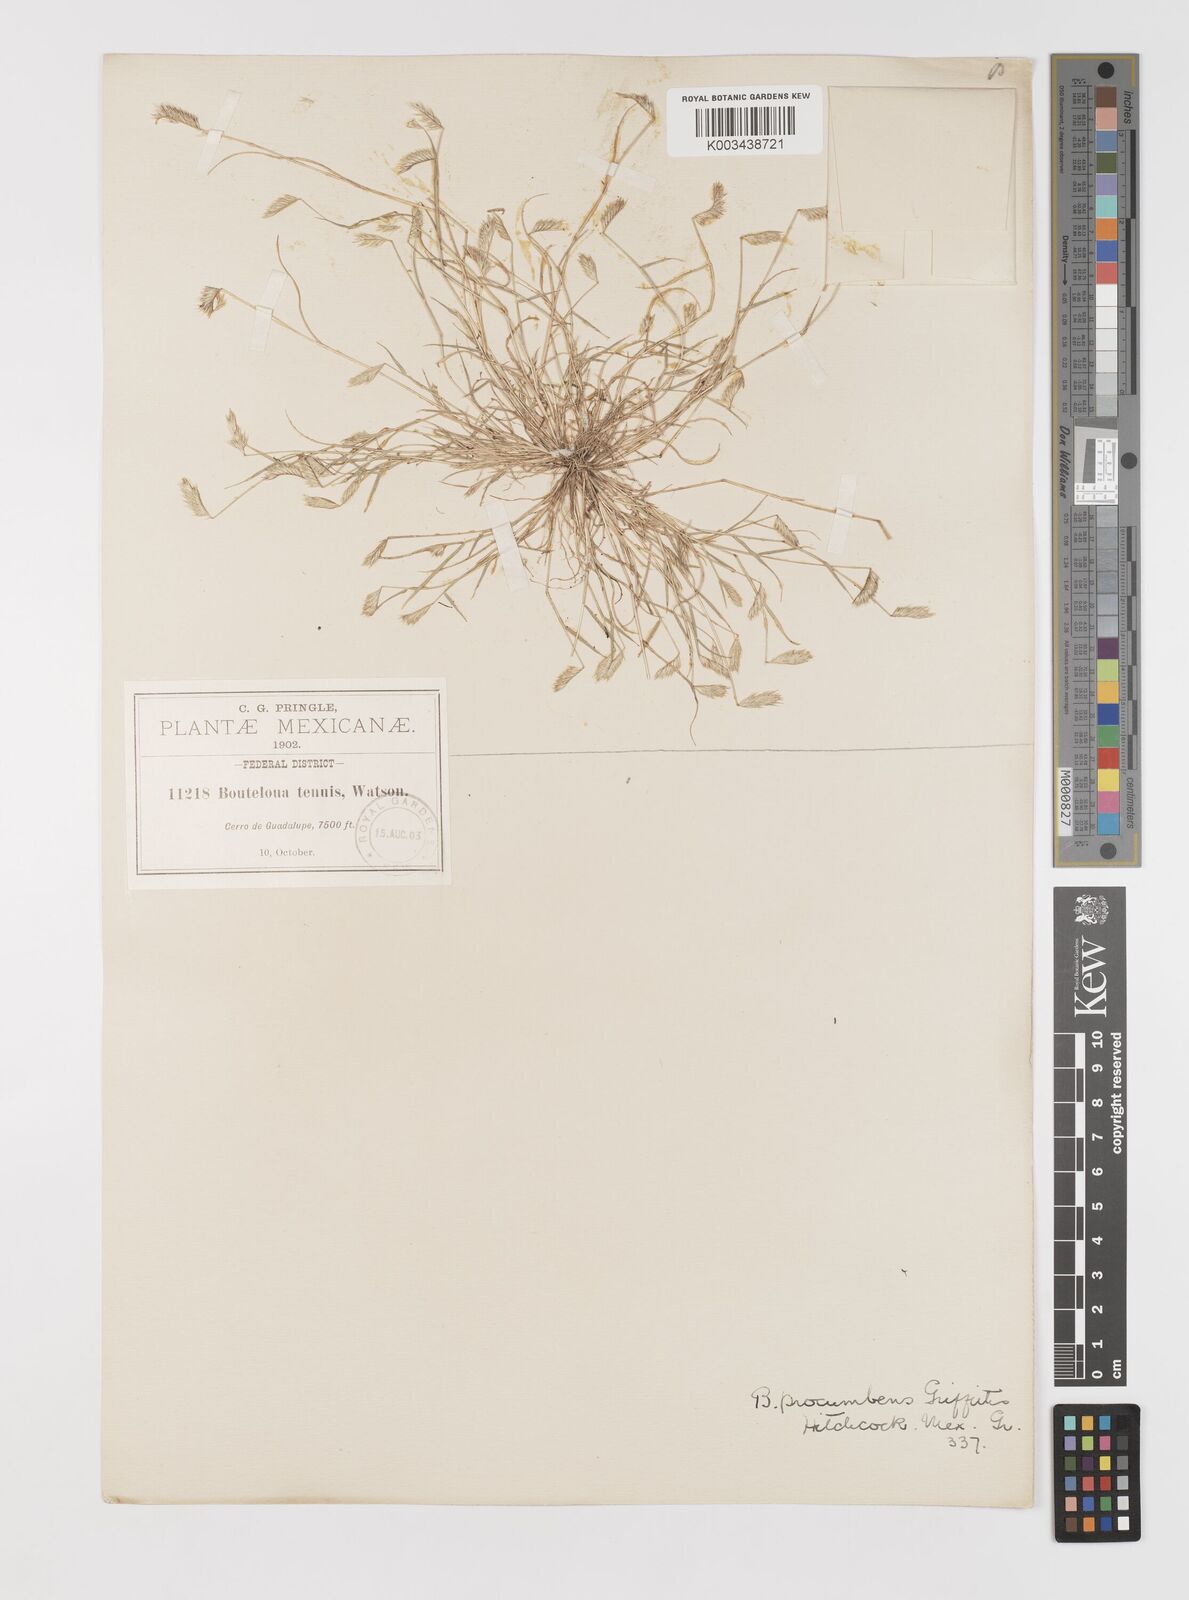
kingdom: Plantae
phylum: Tracheophyta
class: Liliopsida
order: Poales
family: Poaceae
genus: Bouteloua
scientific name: Bouteloua simplex
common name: Mat grama
